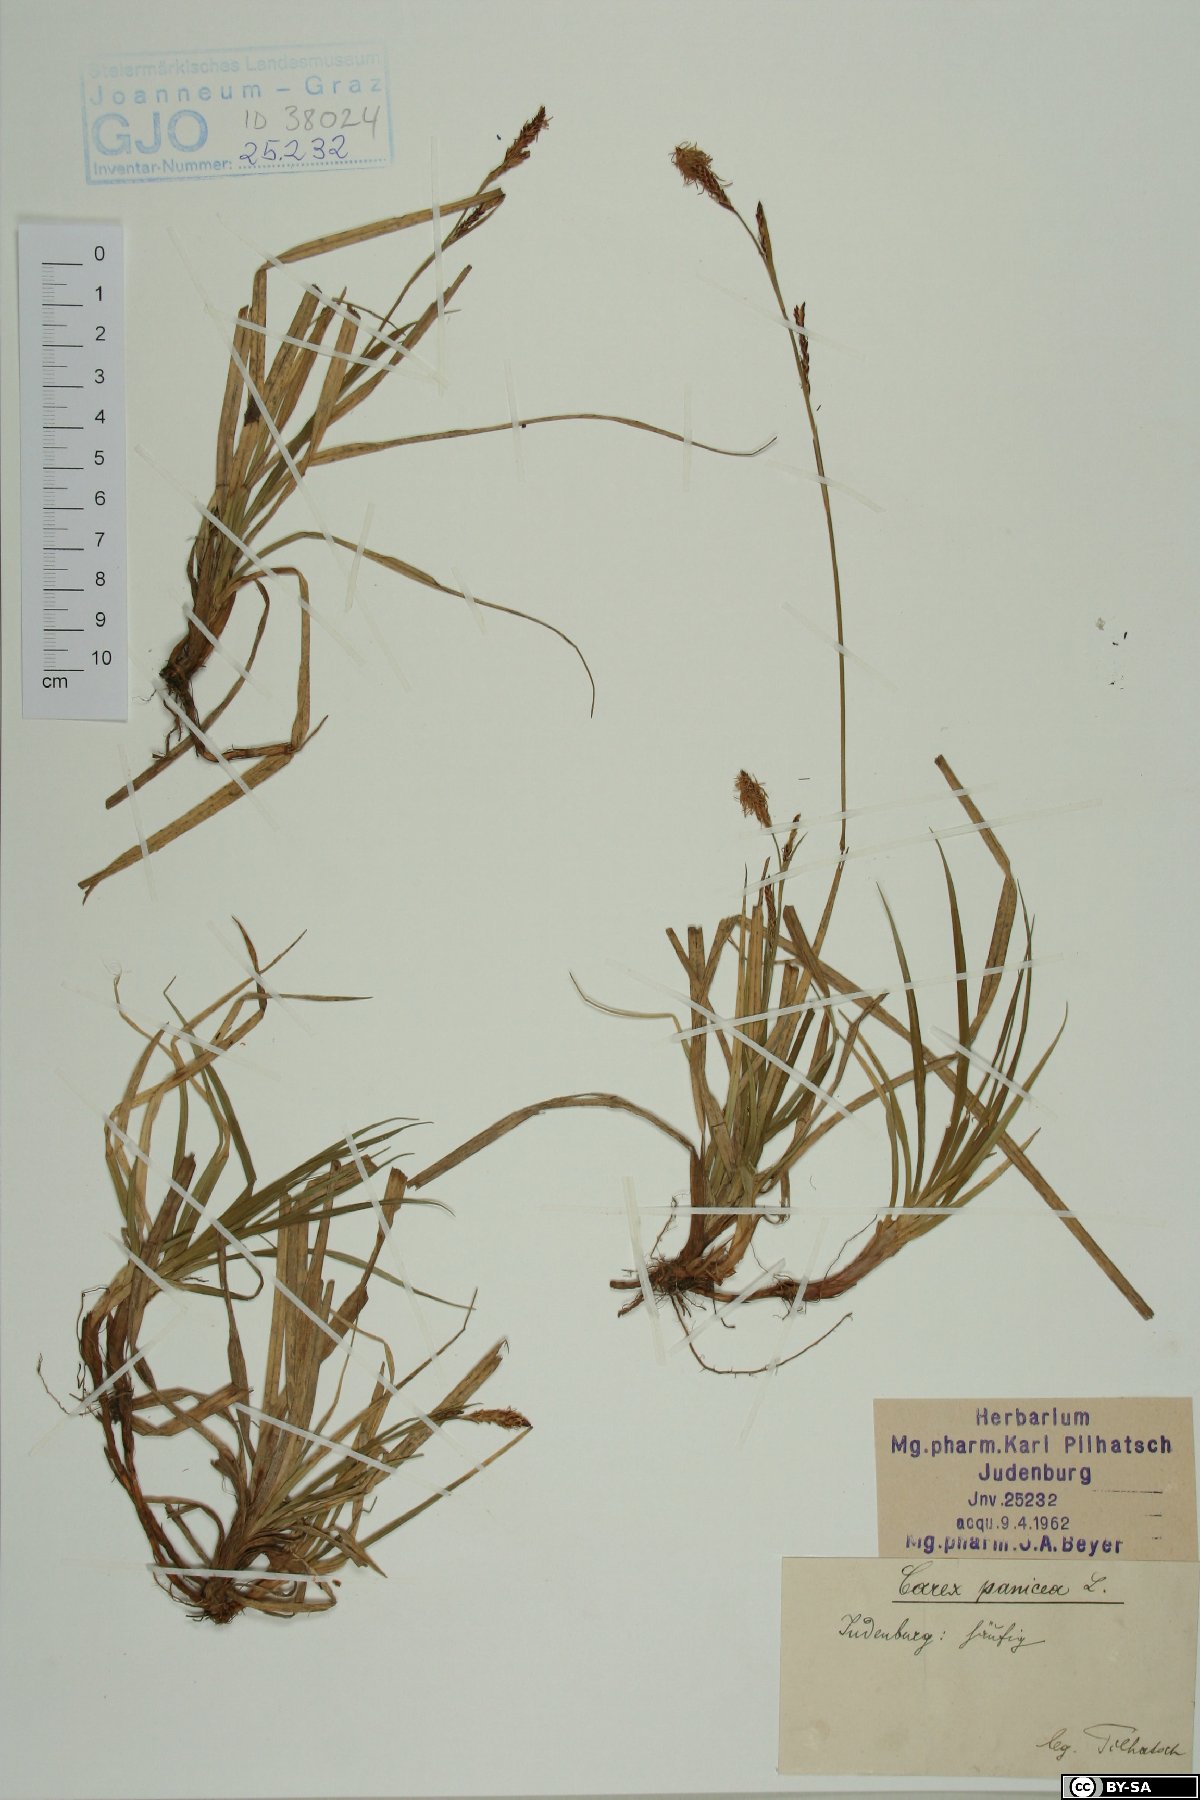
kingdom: Plantae
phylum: Tracheophyta
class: Liliopsida
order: Poales
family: Cyperaceae
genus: Carex
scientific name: Carex panicea
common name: Carnation sedge
